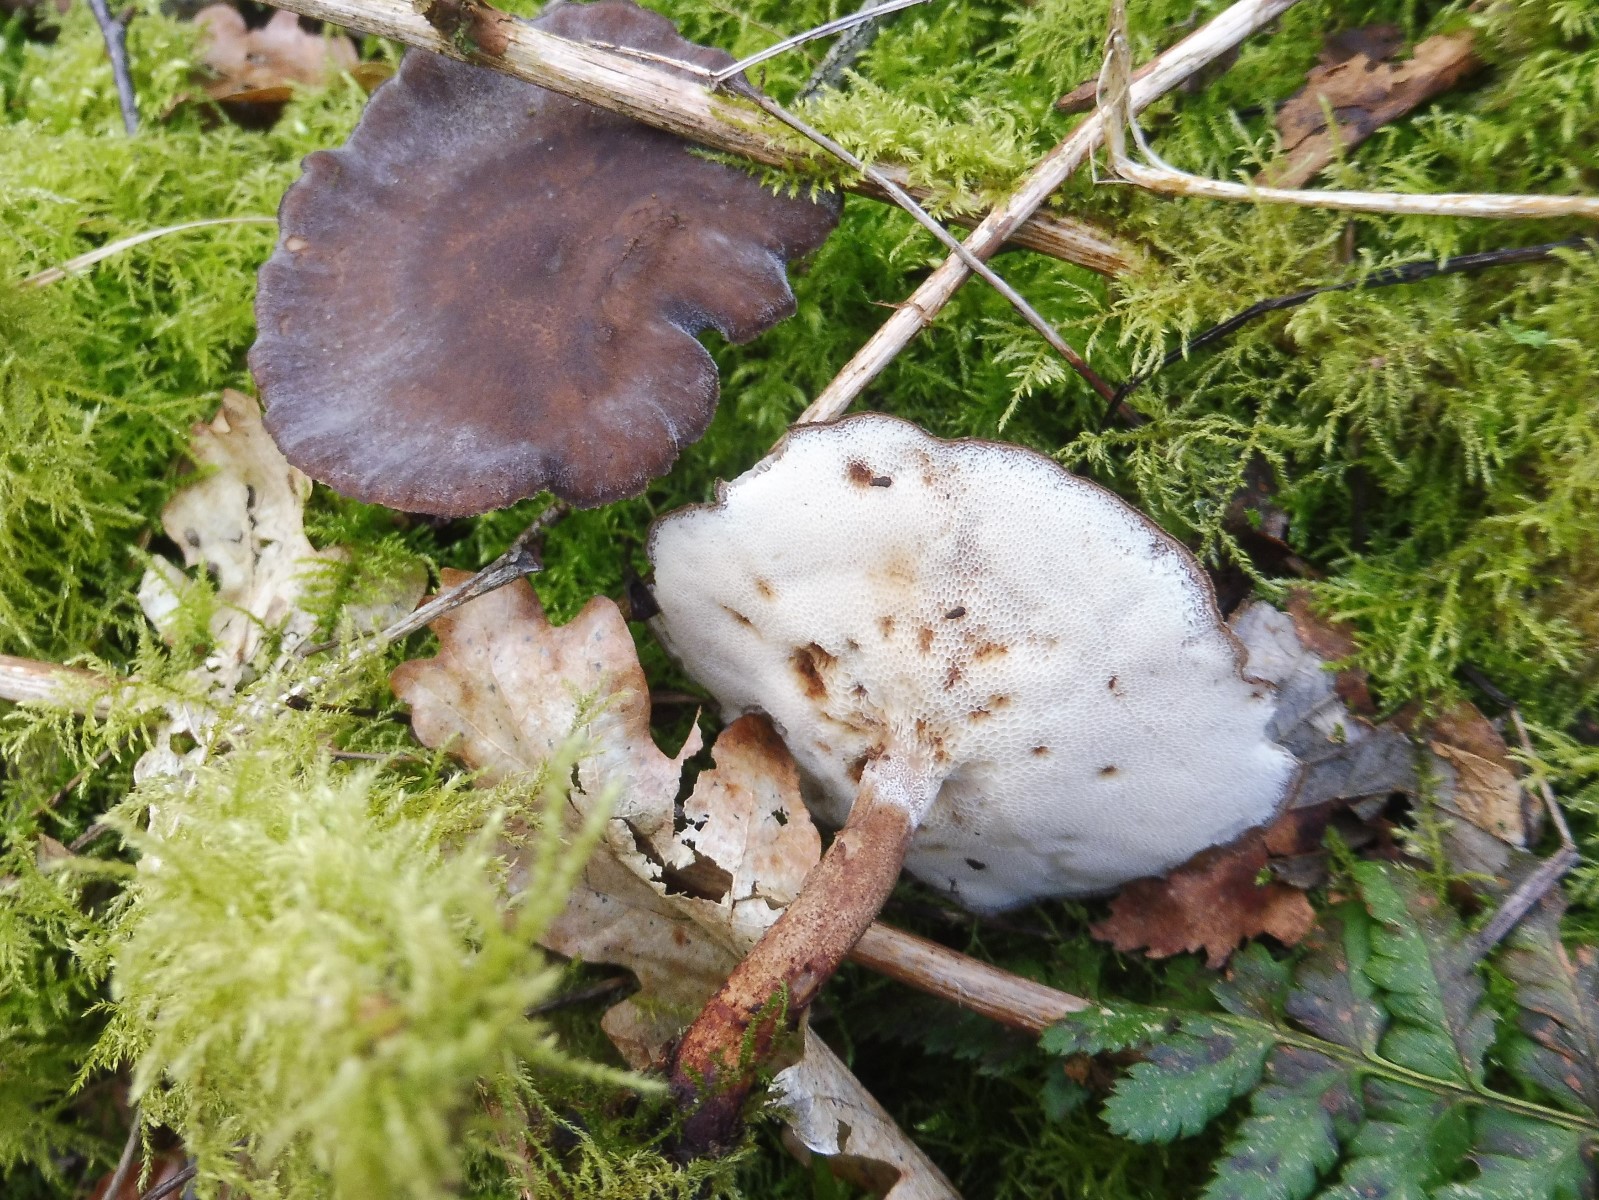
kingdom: Fungi
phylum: Basidiomycota
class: Agaricomycetes
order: Polyporales
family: Polyporaceae
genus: Lentinus
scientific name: Lentinus brumalis
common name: vinter-stilkporesvamp
